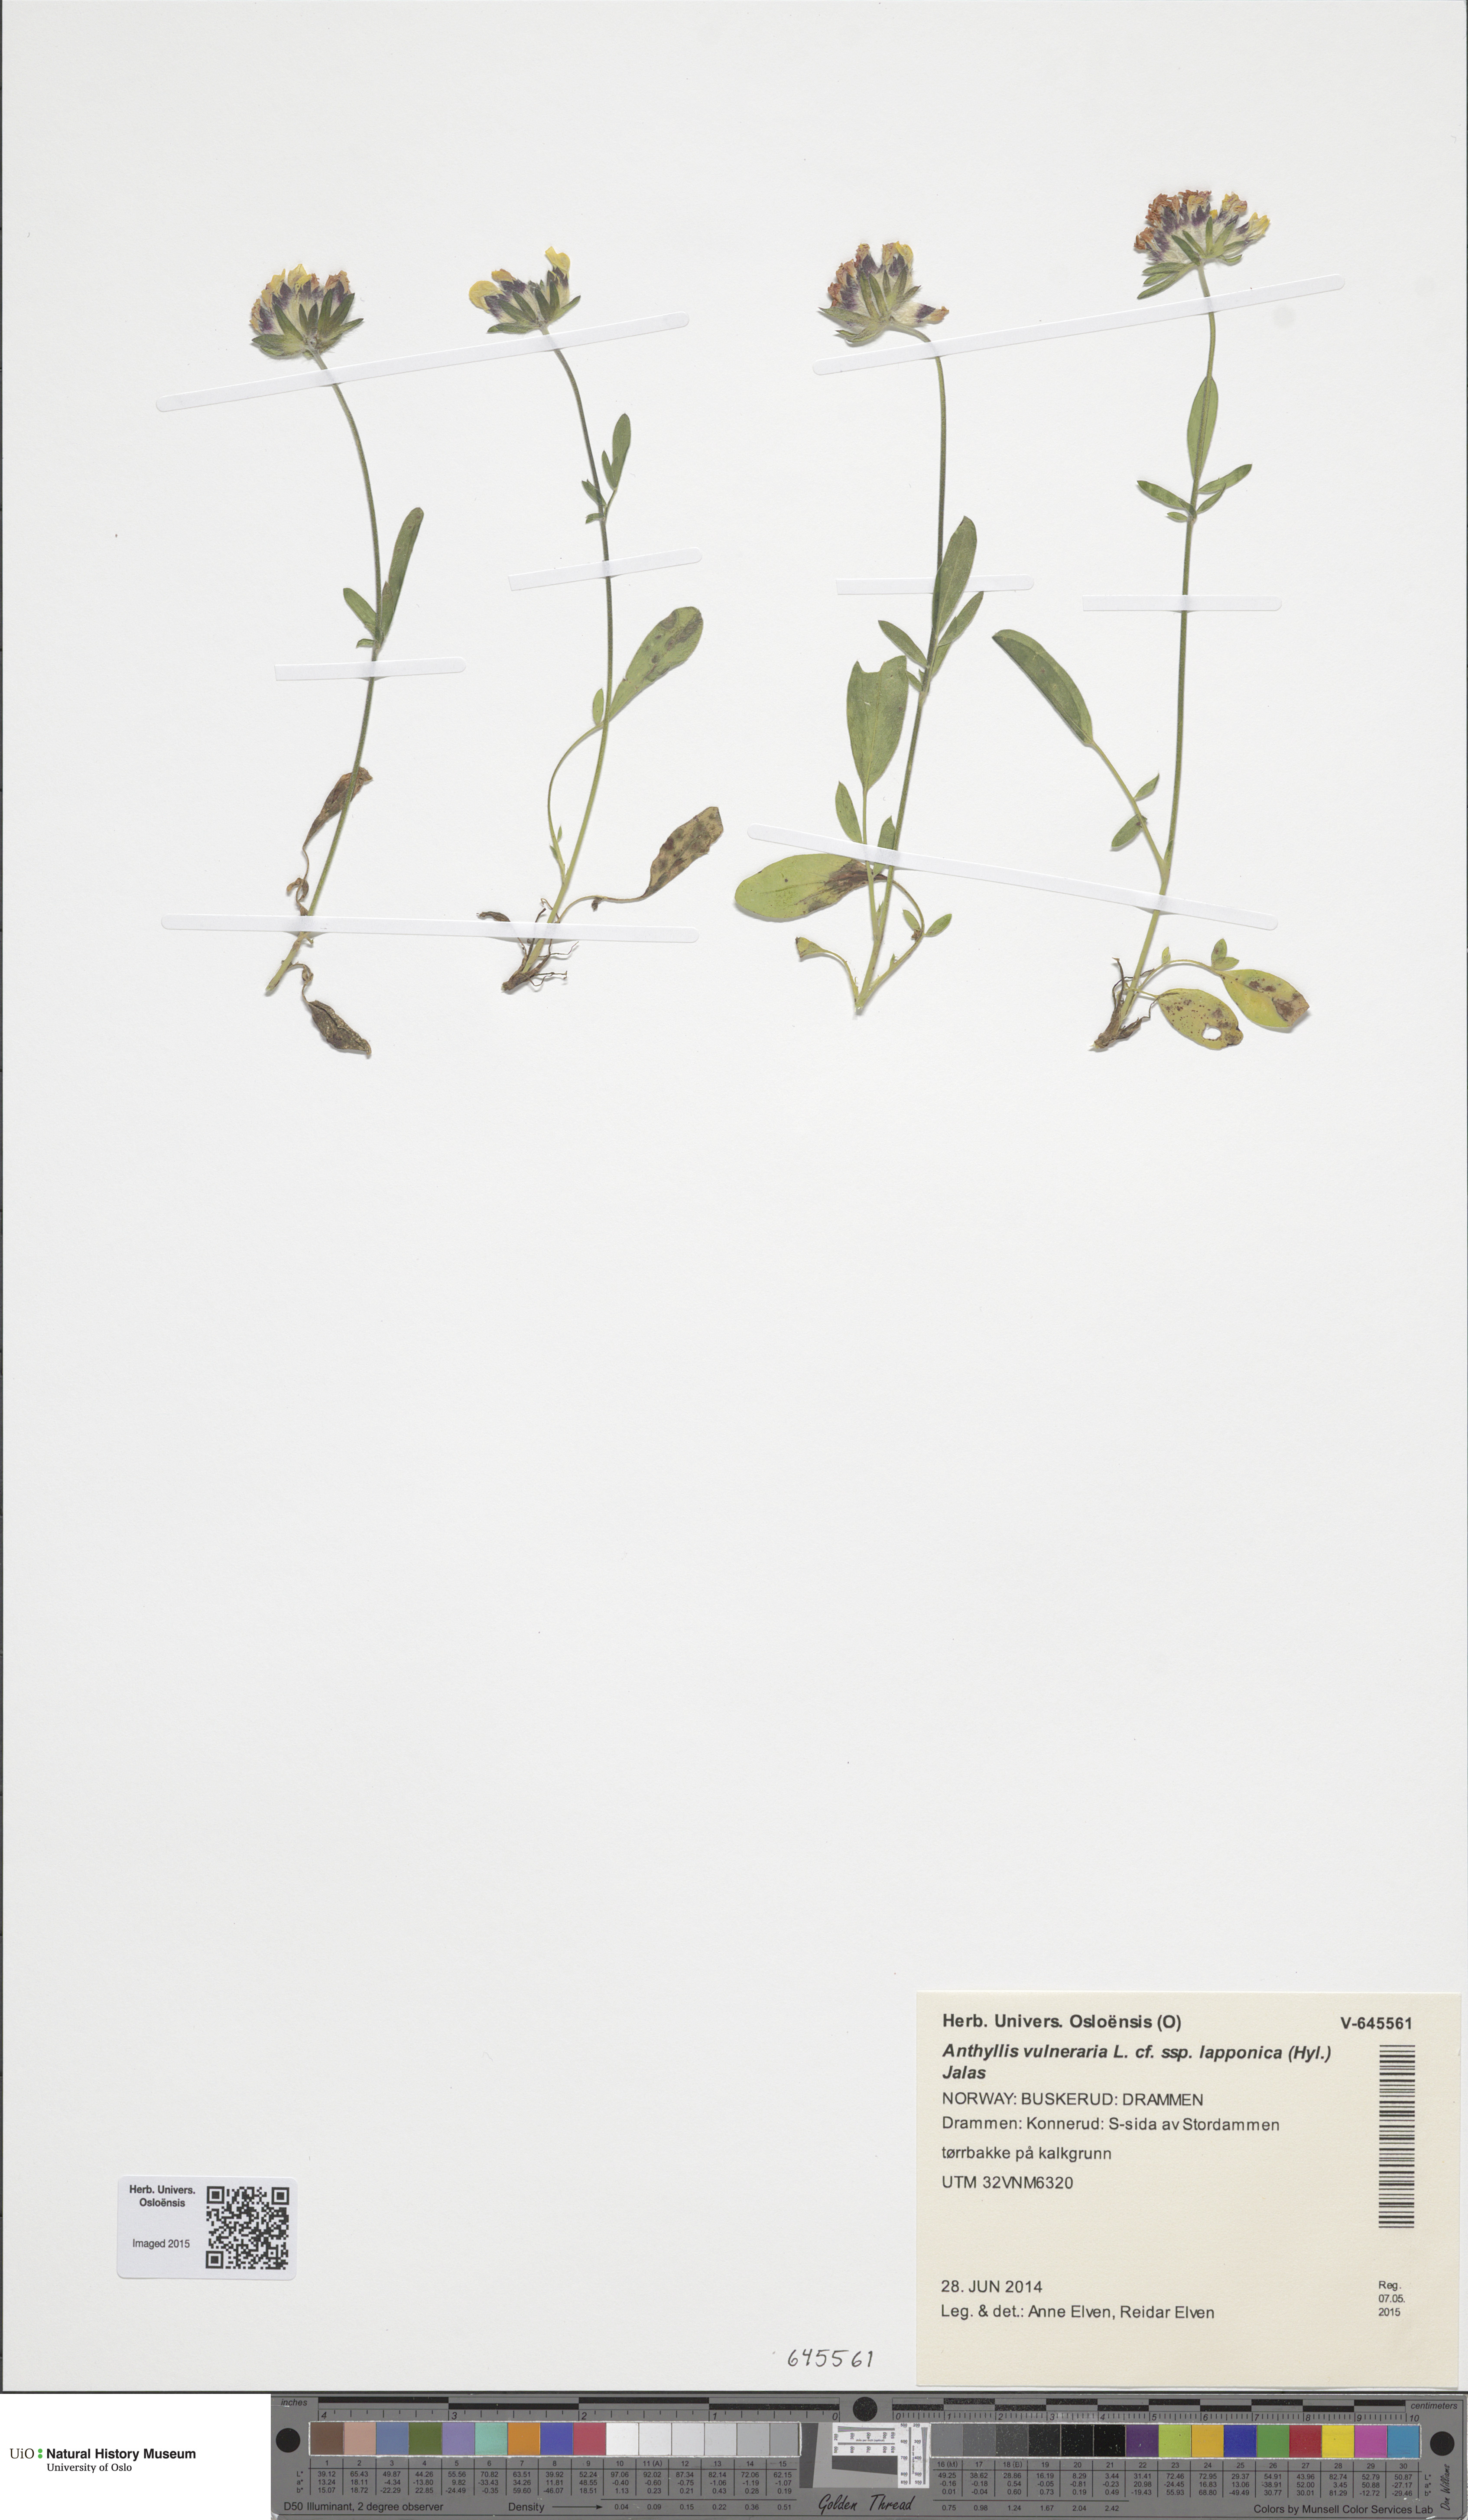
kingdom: Plantae
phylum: Tracheophyta
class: Magnoliopsida
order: Fabales
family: Fabaceae
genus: Anthyllis
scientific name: Anthyllis vulneraria
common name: Kidney vetch
